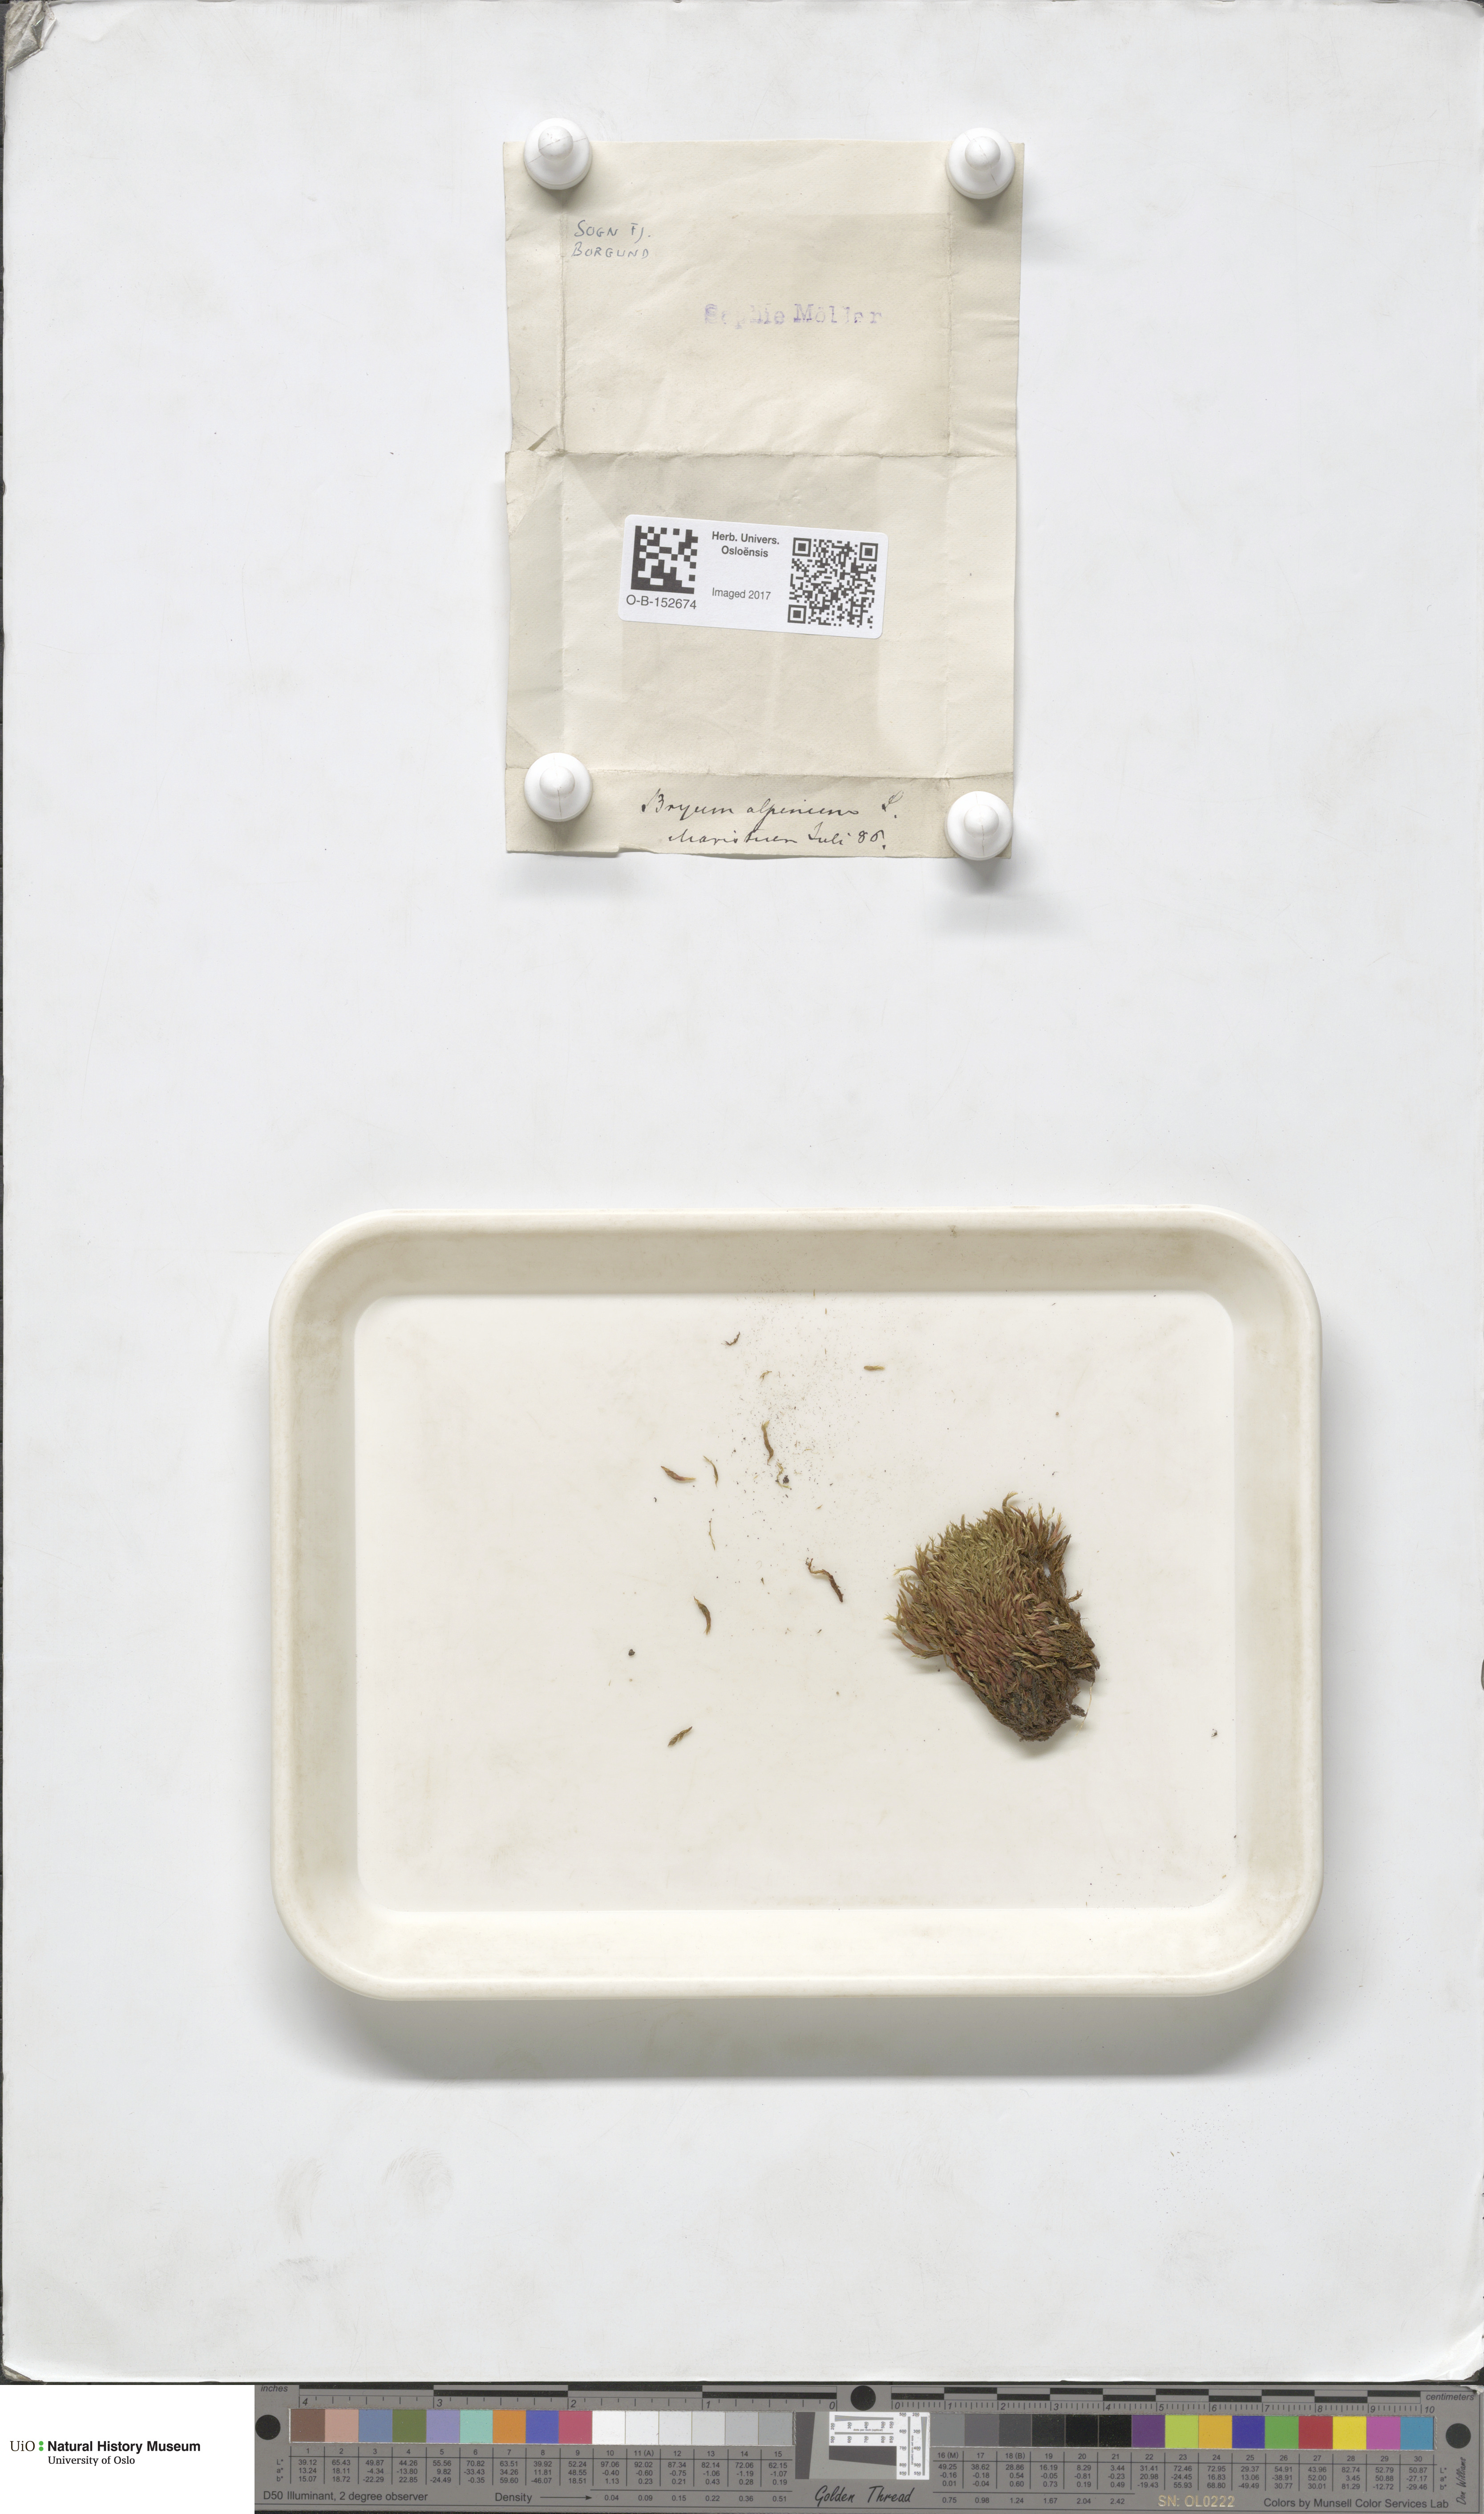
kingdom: Plantae
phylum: Bryophyta
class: Bryopsida
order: Bryales
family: Bryaceae
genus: Imbribryum
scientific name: Imbribryum alpinum
